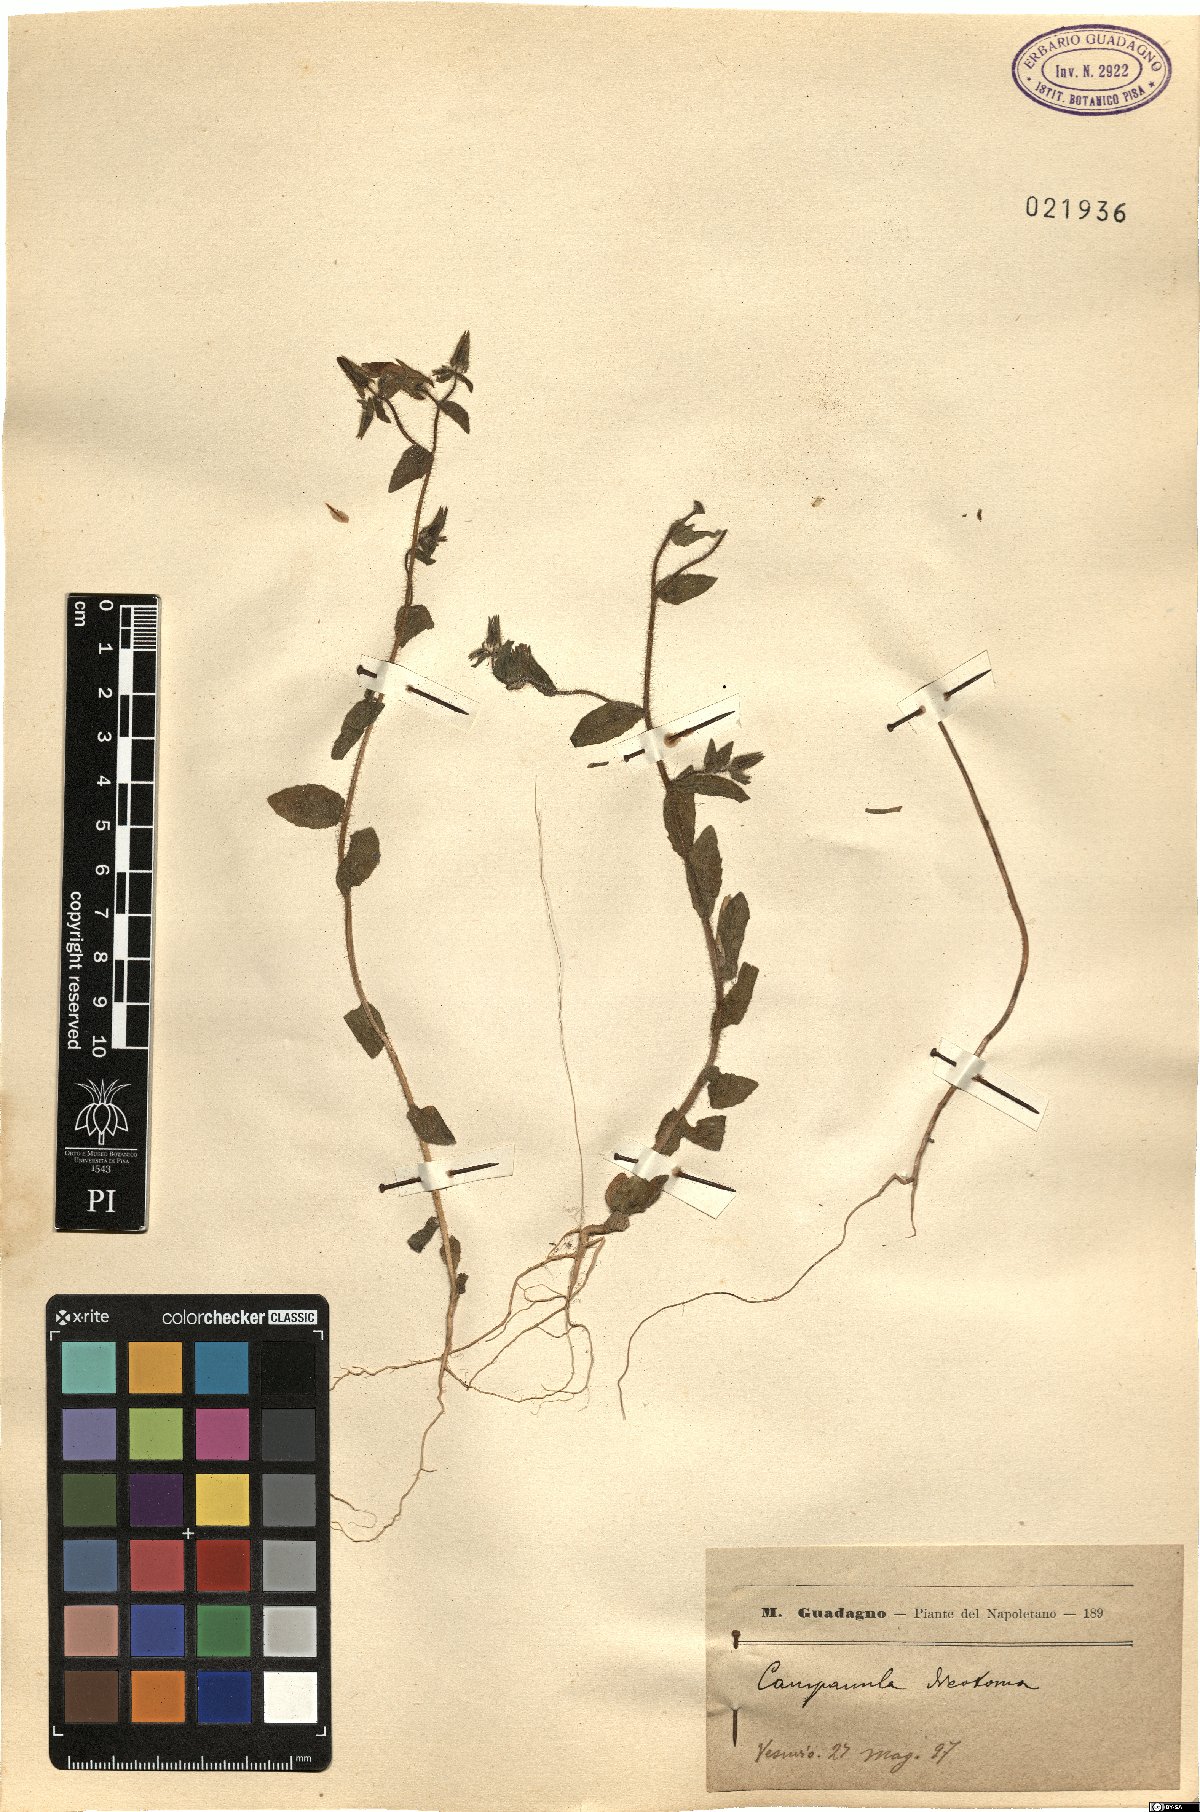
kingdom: Plantae
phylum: Tracheophyta
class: Magnoliopsida
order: Asterales
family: Campanulaceae
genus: Campanula
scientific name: Campanula dichotoma
